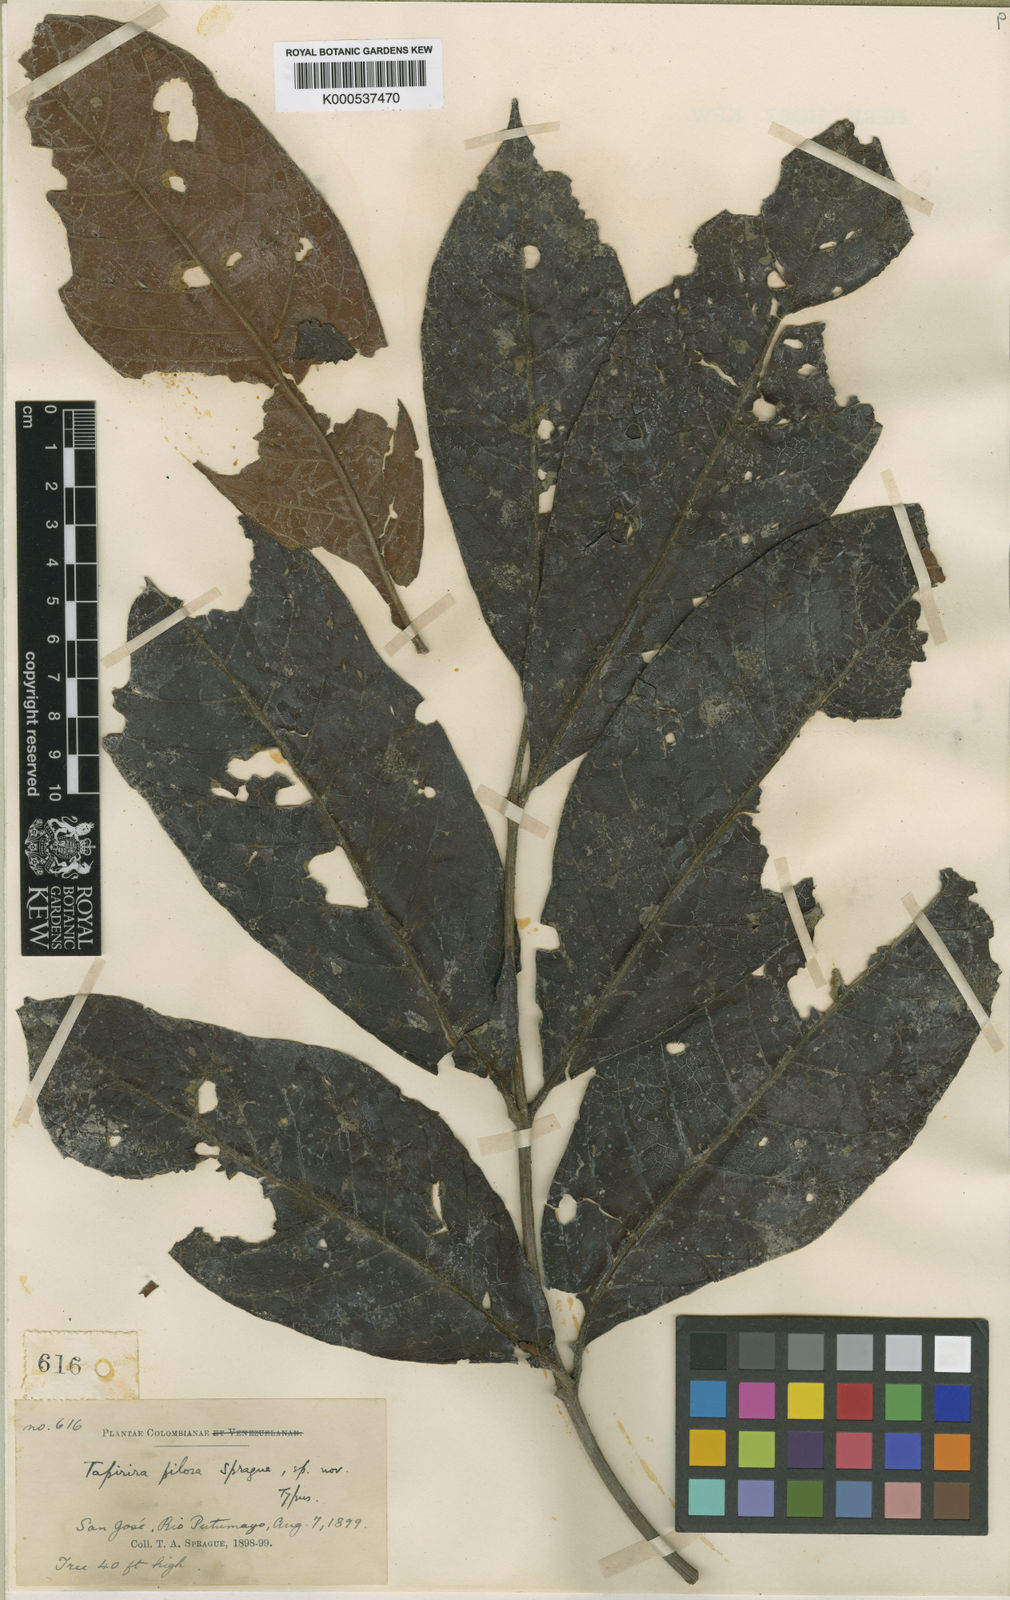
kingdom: Plantae
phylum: Tracheophyta
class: Magnoliopsida
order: Sapindales
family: Anacardiaceae
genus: Tapirira
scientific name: Tapirira pilosa
